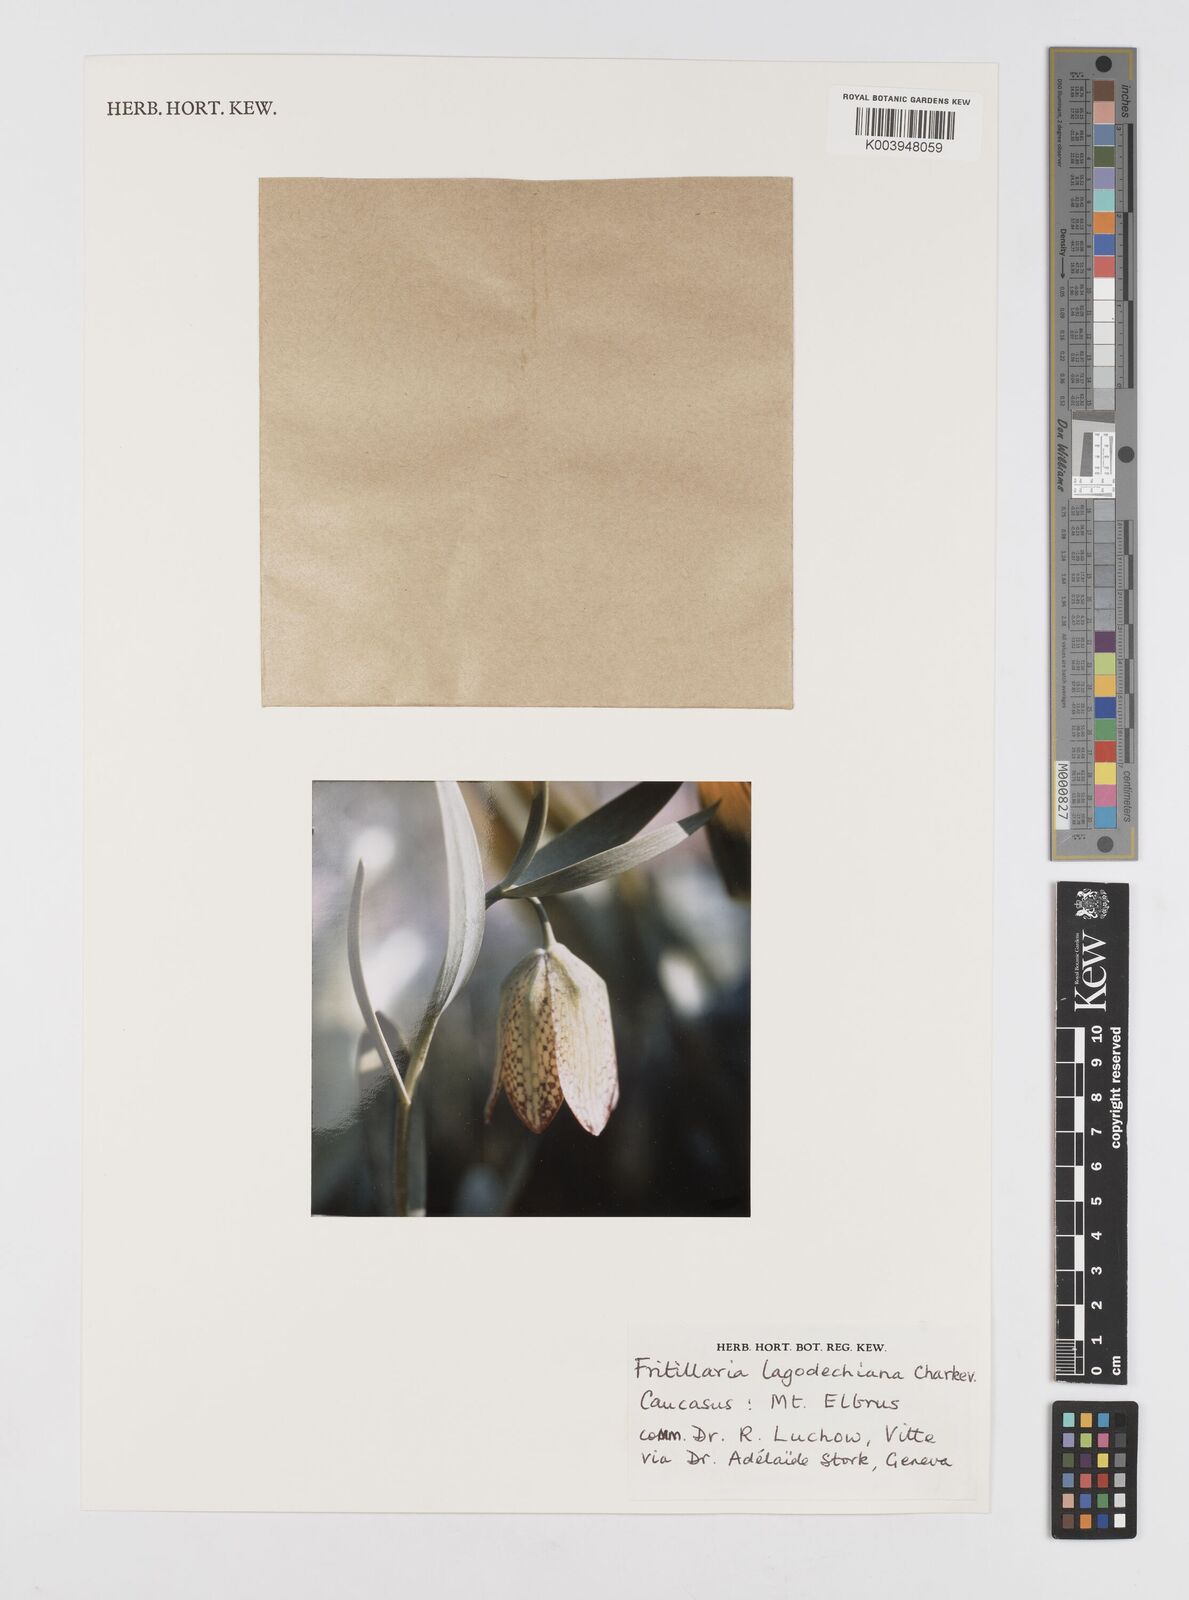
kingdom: Plantae
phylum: Tracheophyta
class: Liliopsida
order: Liliales
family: Liliaceae
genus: Fritillaria
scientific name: Fritillaria lagodechiana
